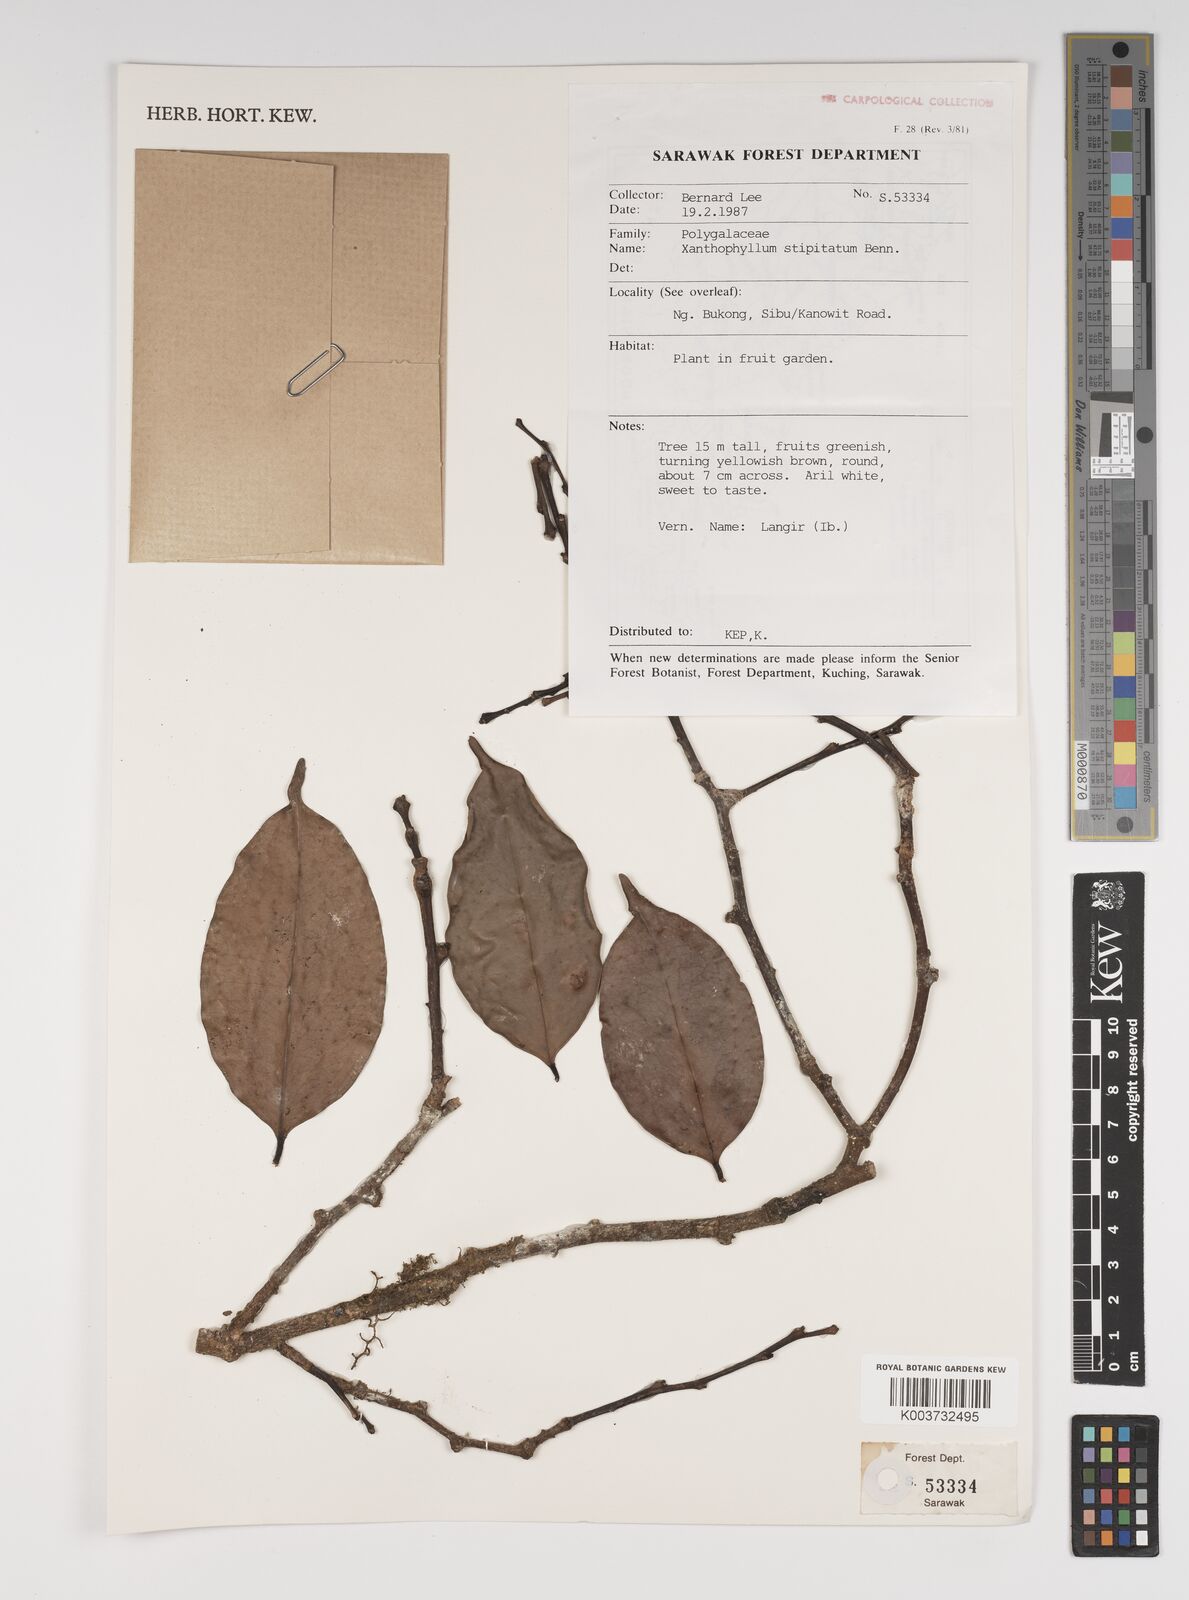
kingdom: Plantae
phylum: Tracheophyta
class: Magnoliopsida
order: Fabales
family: Polygalaceae
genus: Xanthophyllum
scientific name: Xanthophyllum stipitatum
